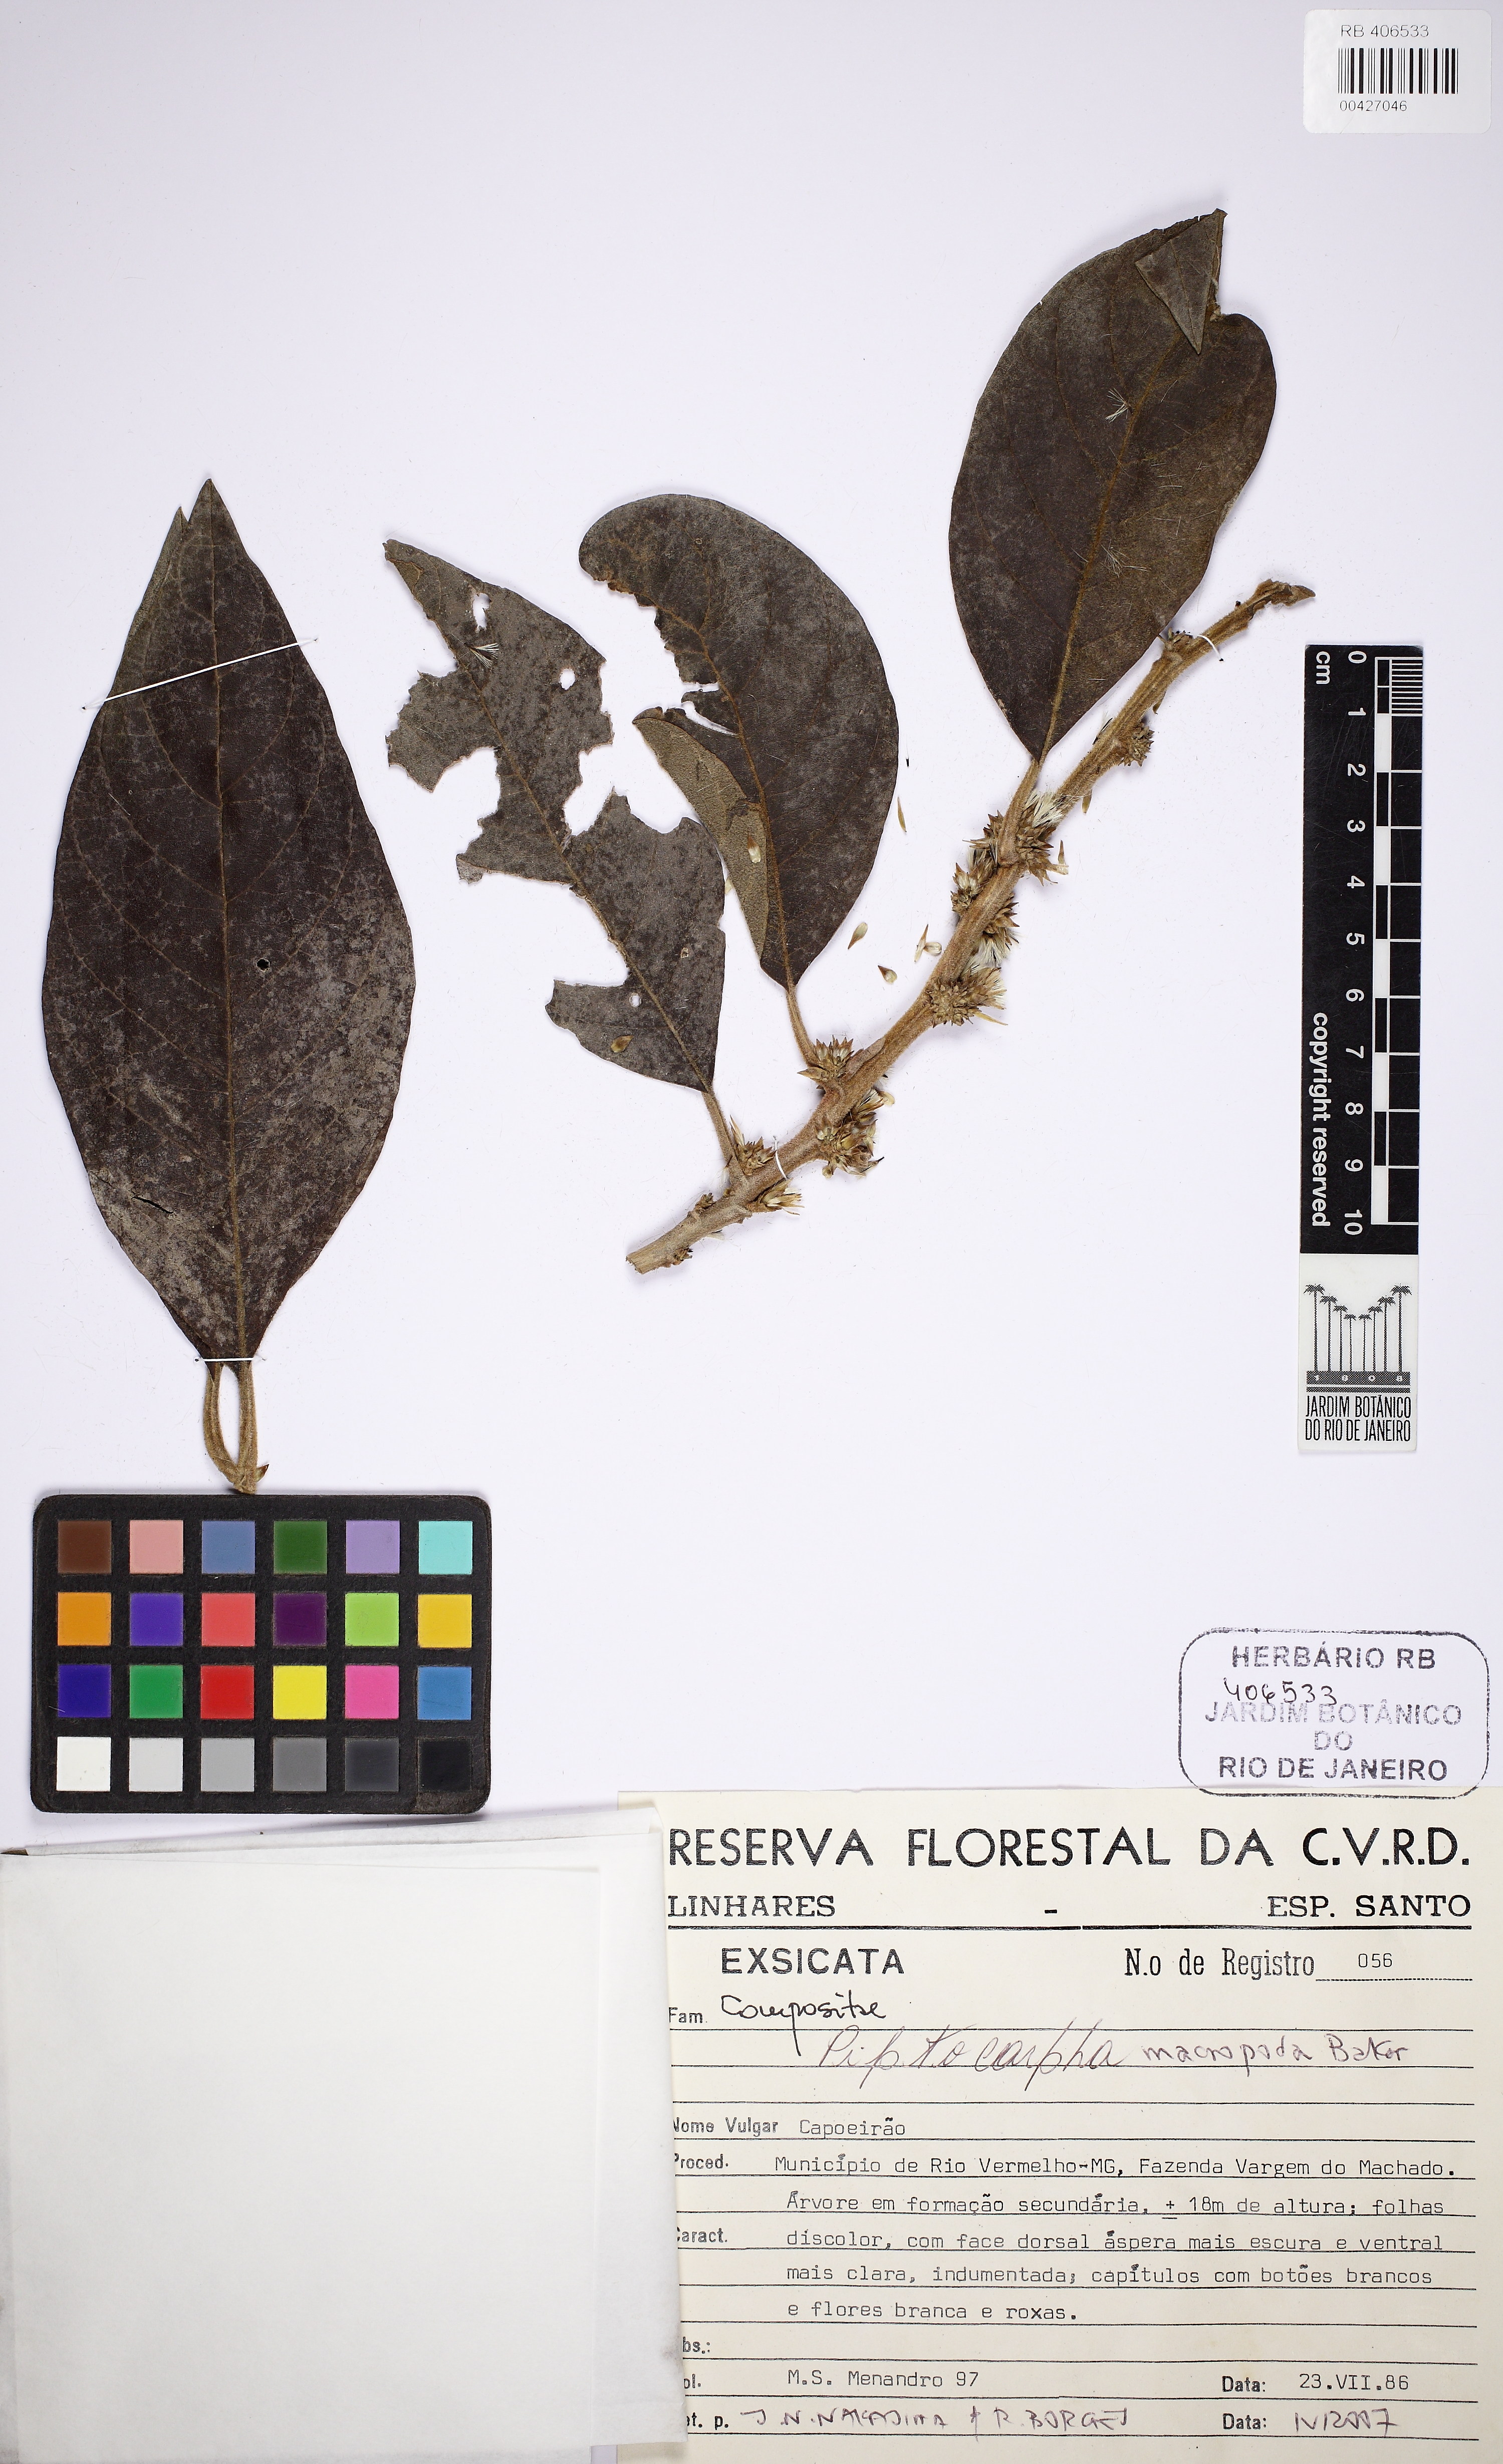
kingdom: Plantae
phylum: Tracheophyta
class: Magnoliopsida
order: Asterales
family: Asteraceae
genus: Piptocarpha
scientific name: Piptocarpha macropoda
